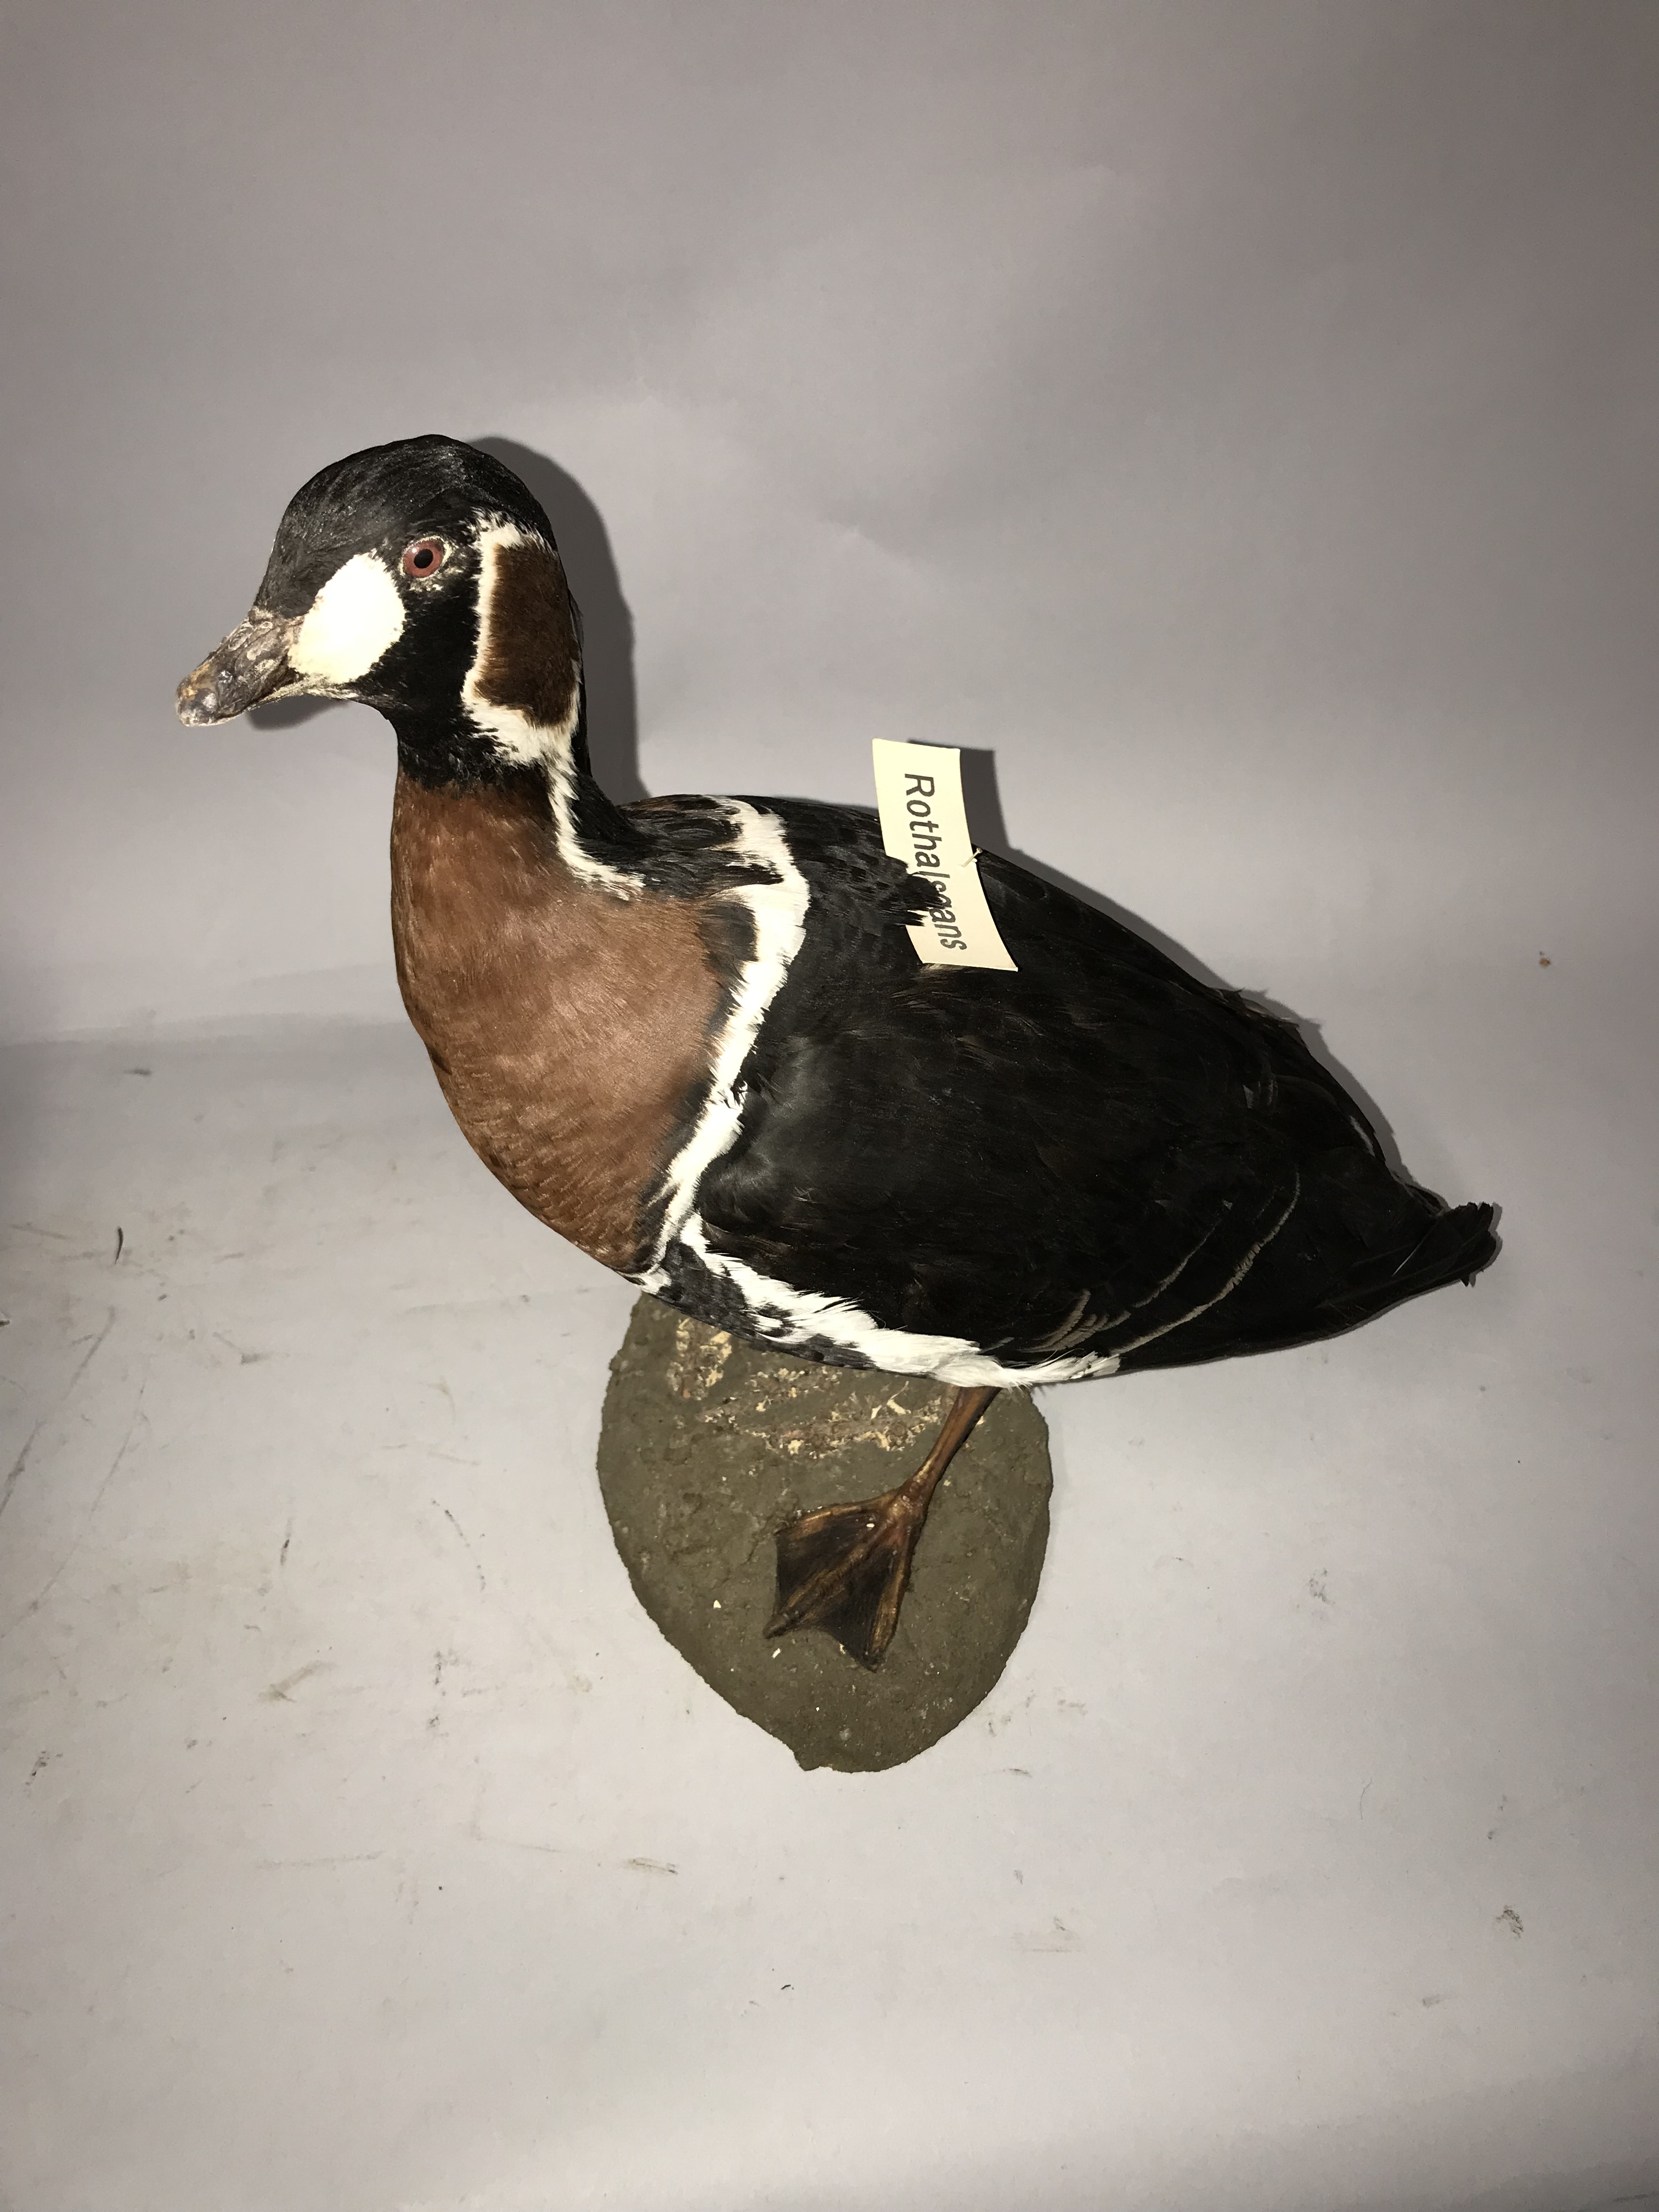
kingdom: Animalia
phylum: Chordata
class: Aves
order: Anseriformes
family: Anatidae
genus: Branta
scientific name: Branta ruficollis
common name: Red-breasted goose
